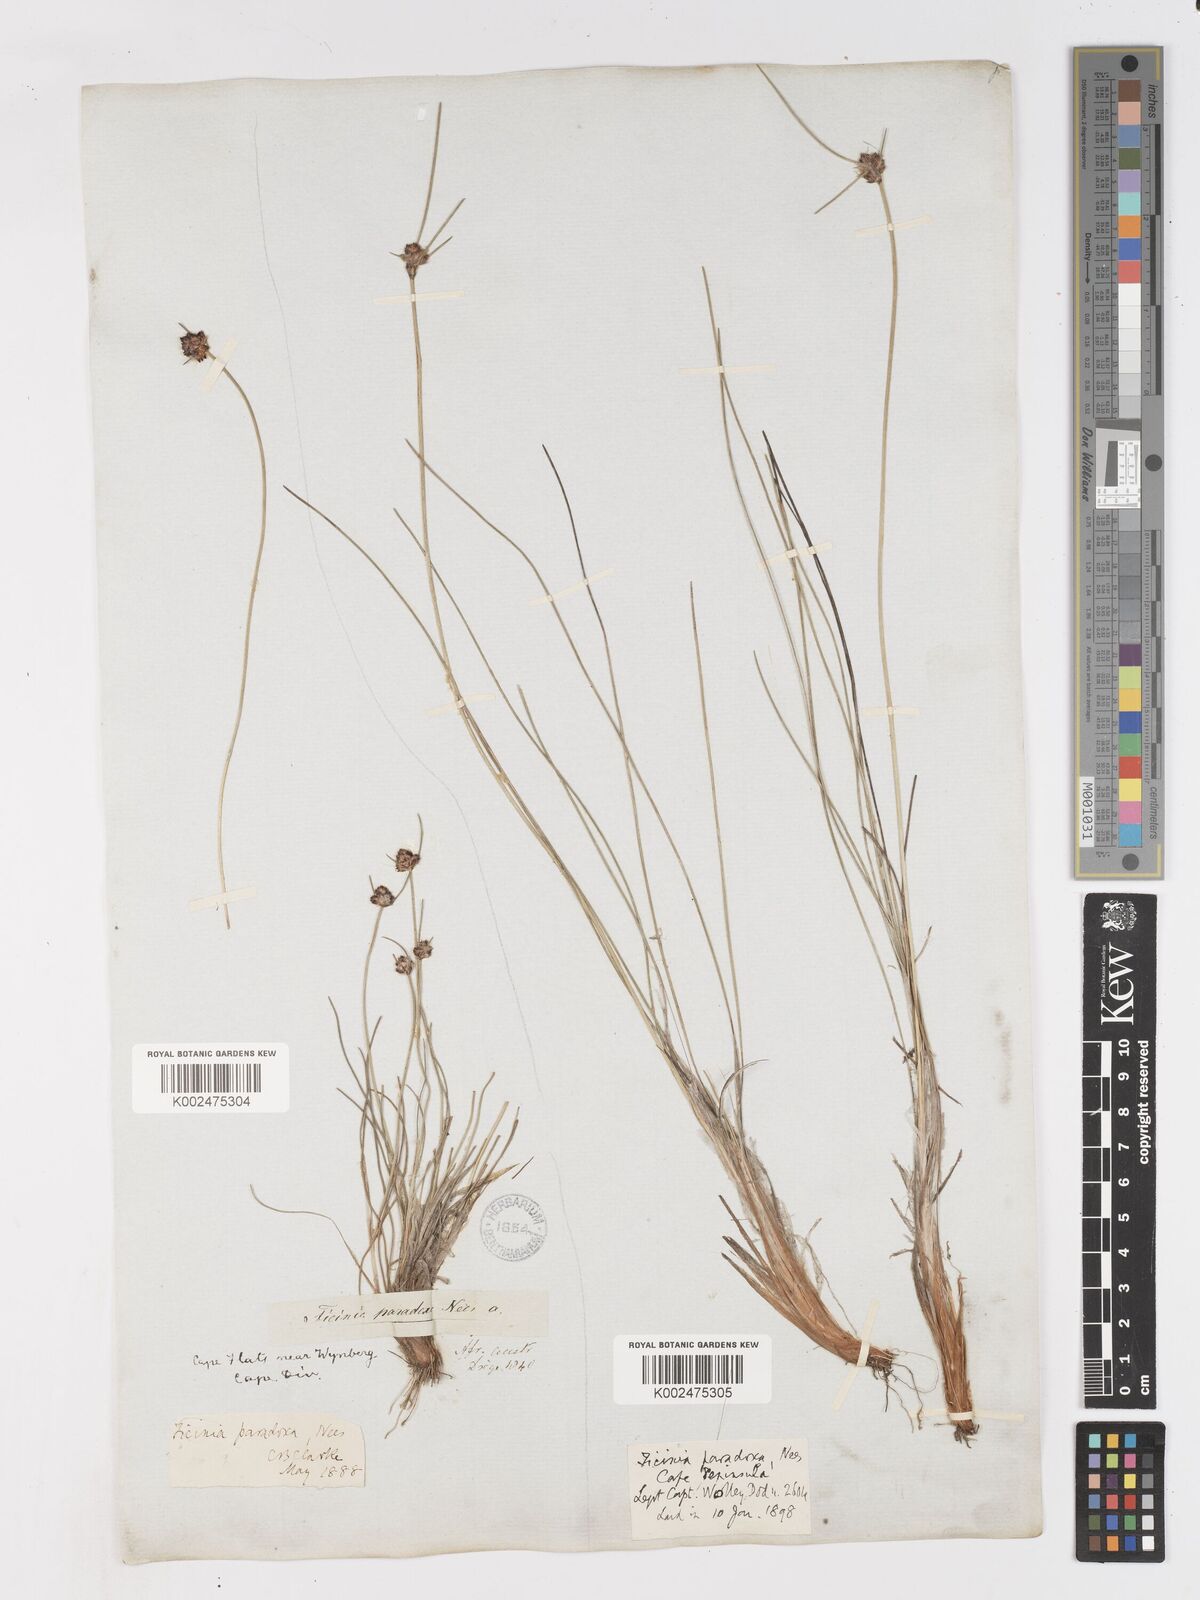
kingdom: Plantae
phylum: Tracheophyta
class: Liliopsida
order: Poales
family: Cyperaceae
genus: Ficinia
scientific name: Ficinia paradoxa
